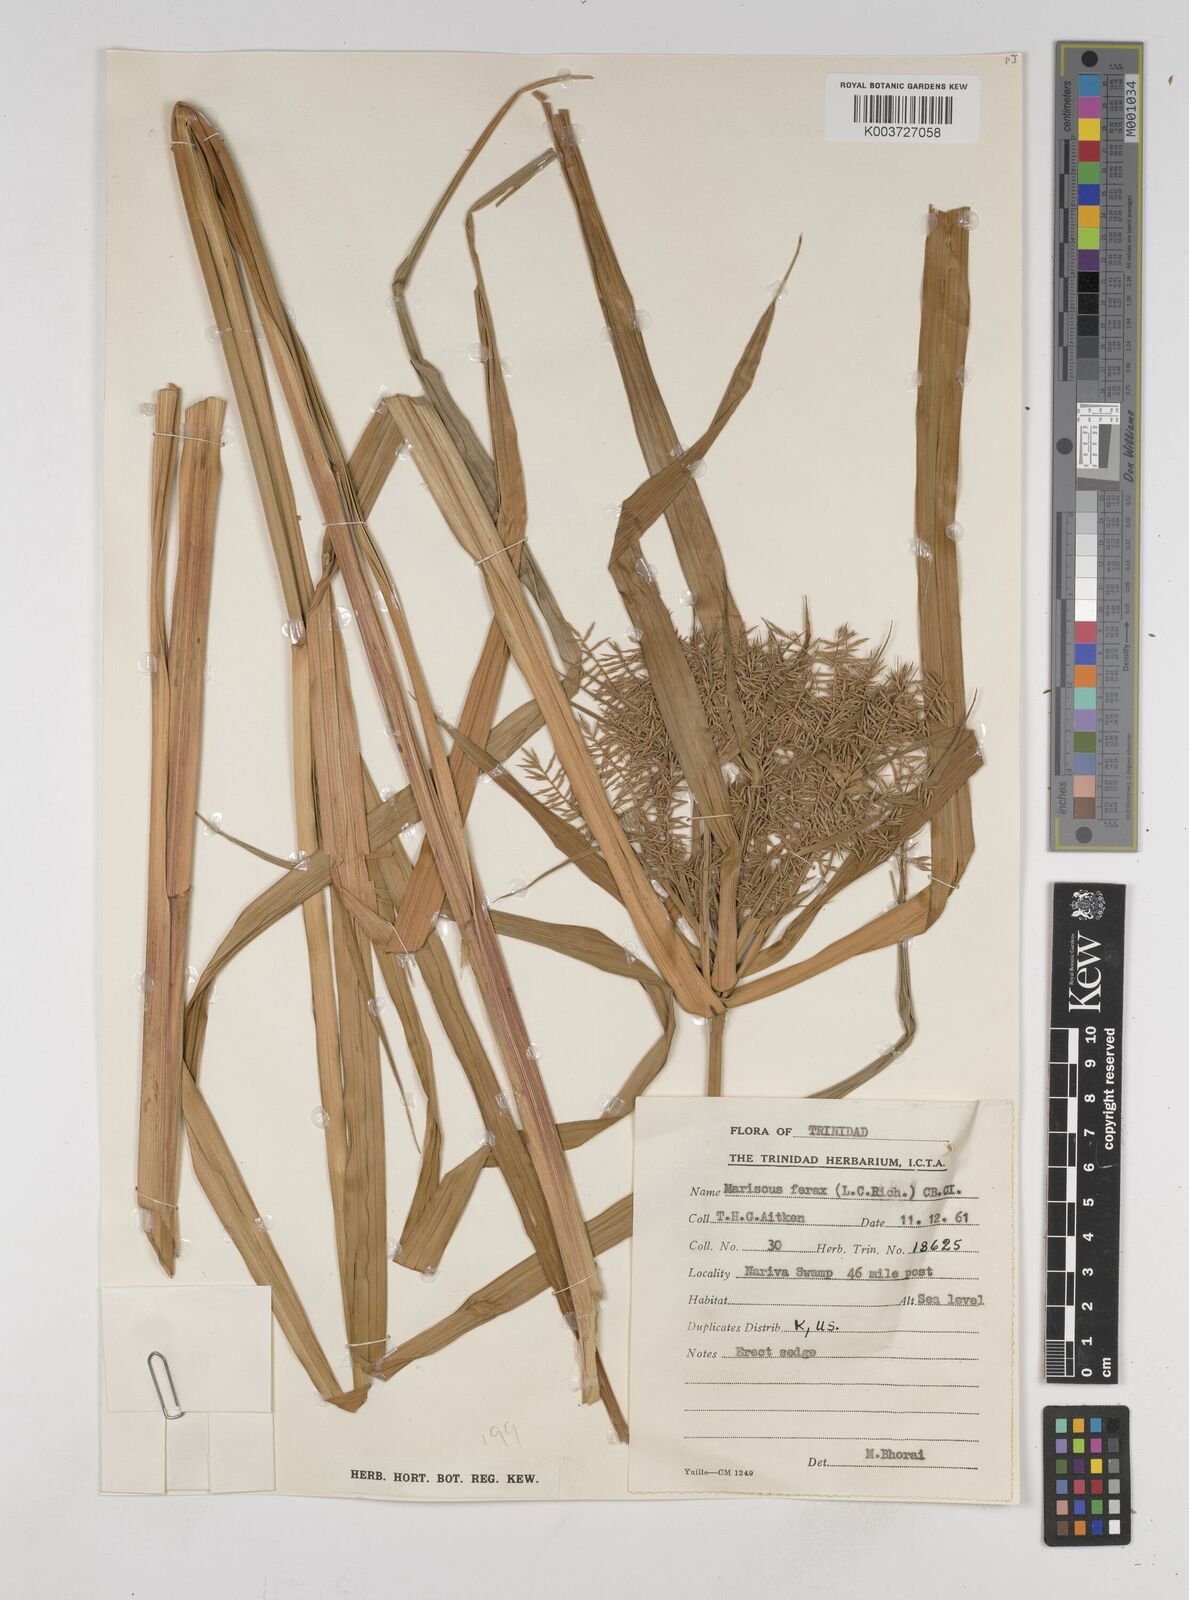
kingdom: Plantae
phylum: Tracheophyta
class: Liliopsida
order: Poales
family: Cyperaceae
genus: Cyperus
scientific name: Cyperus odoratus
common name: Fragrant flatsedge
